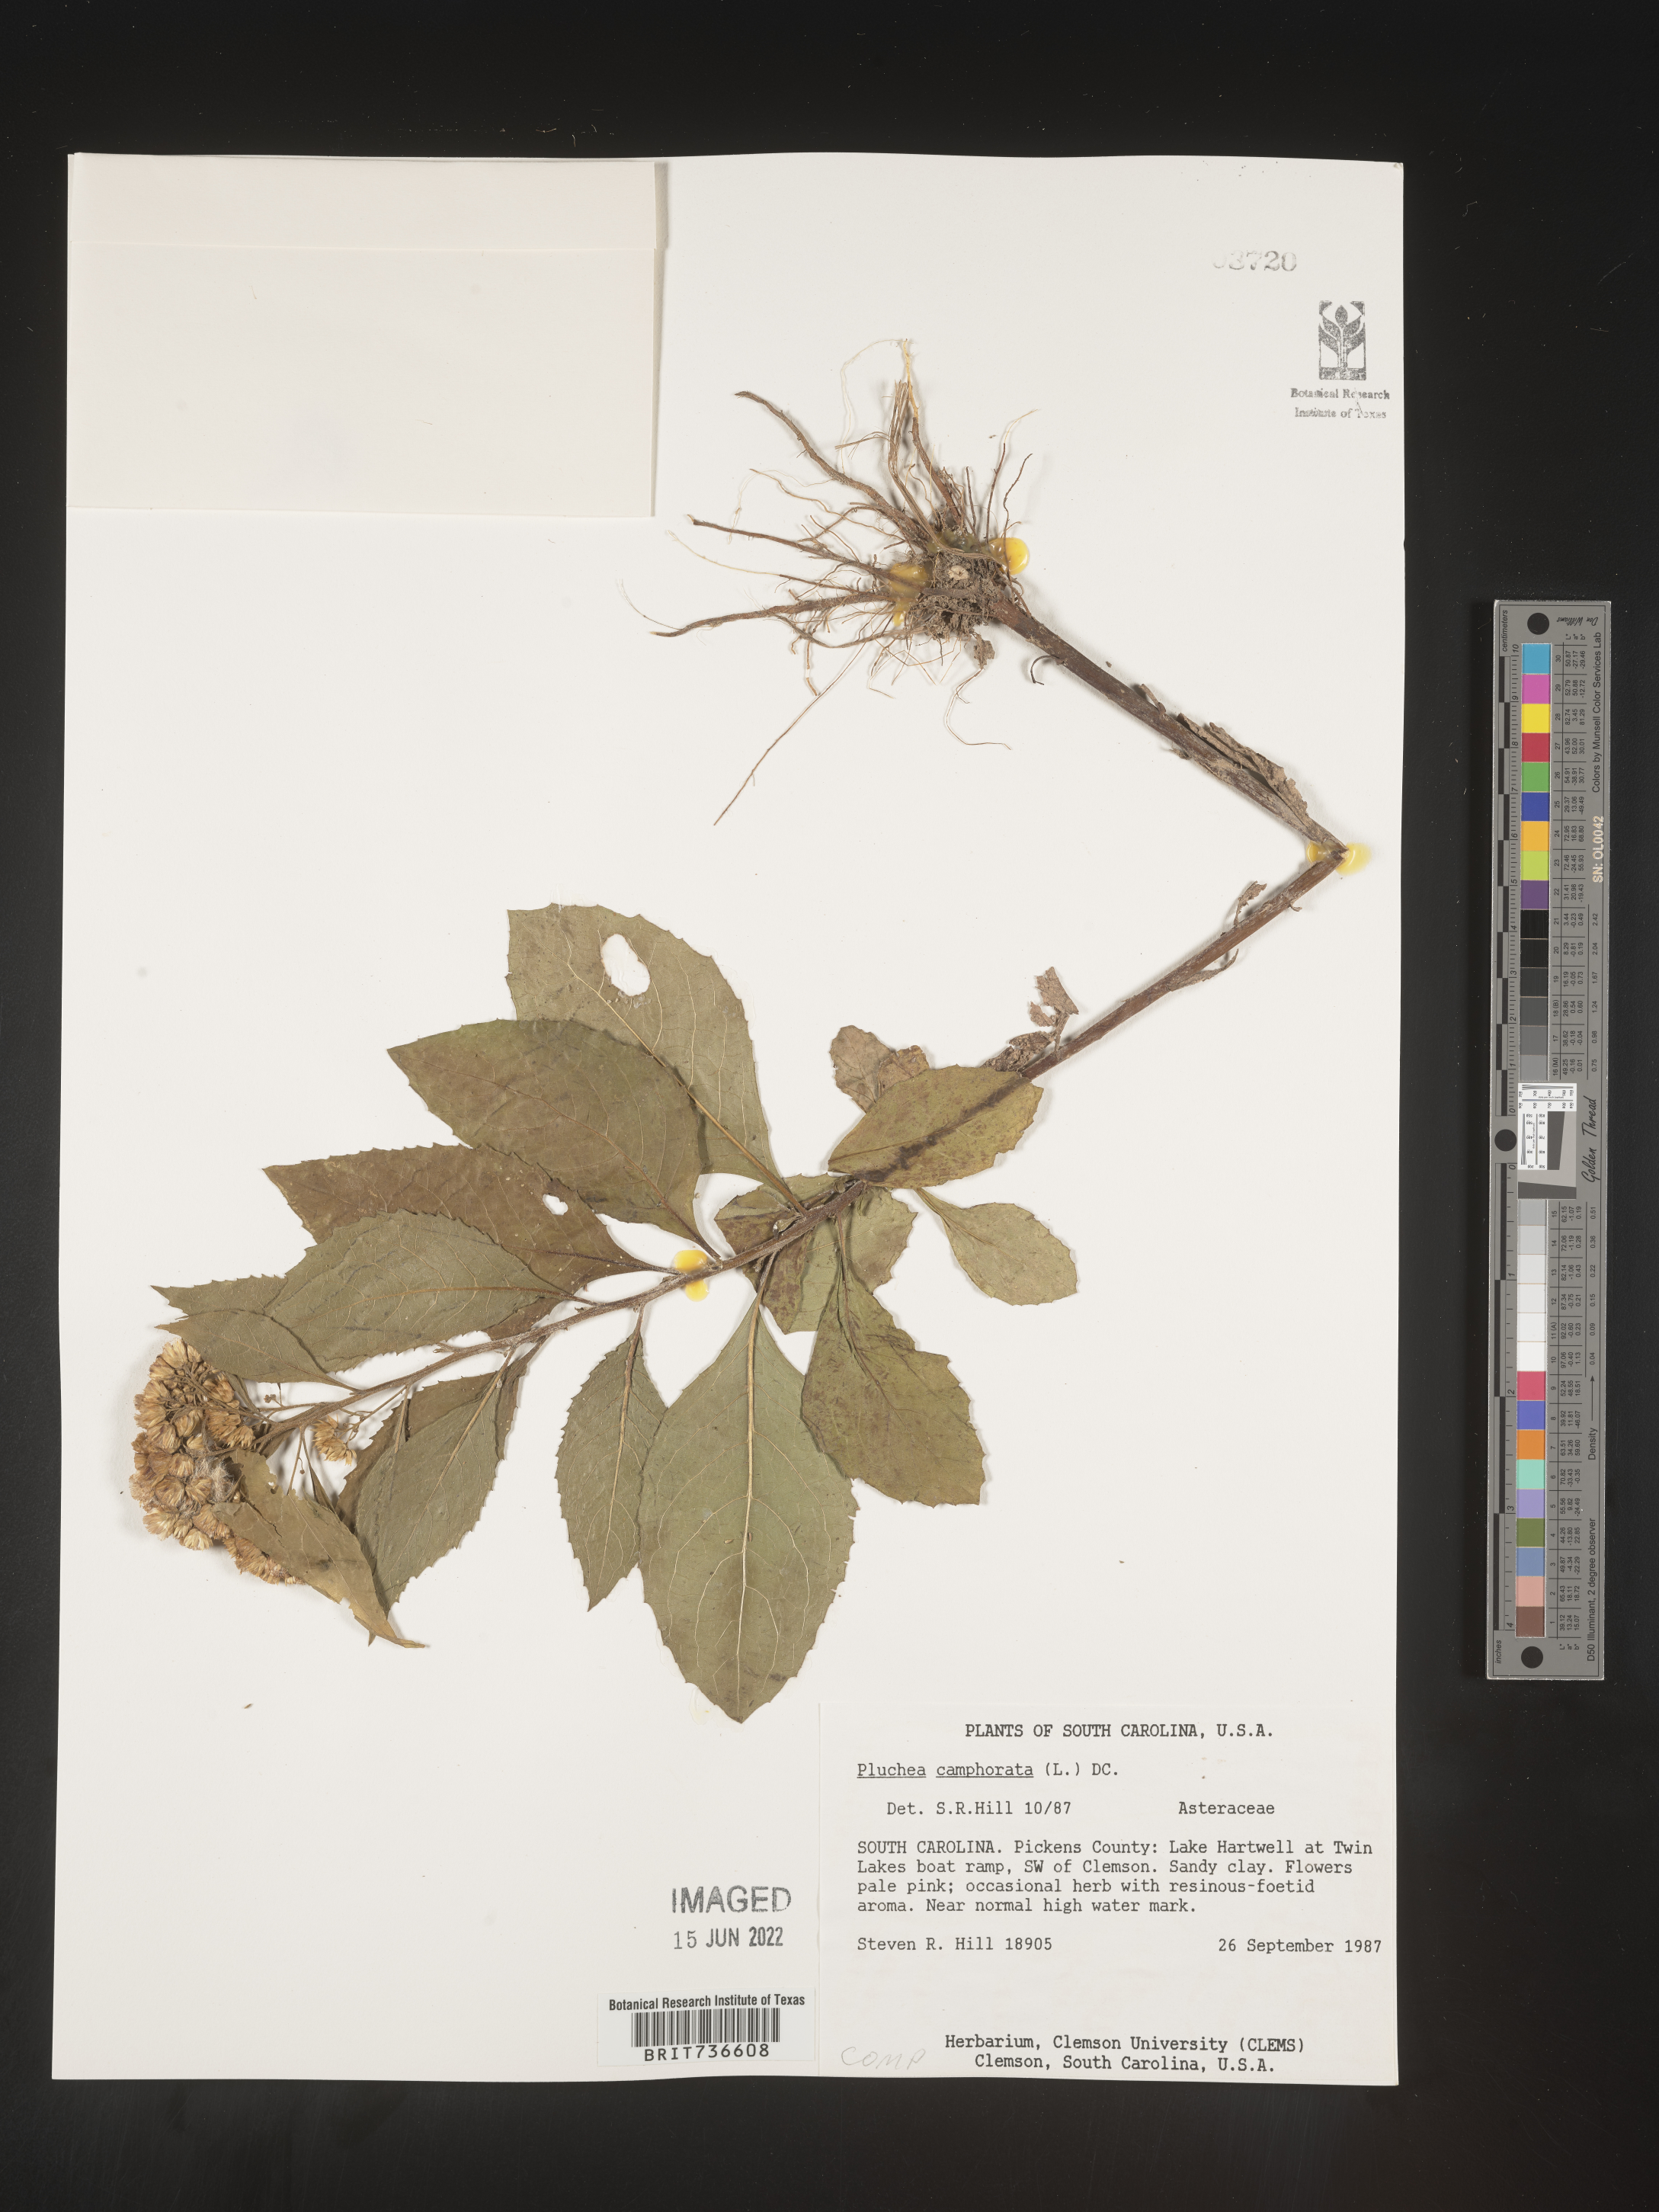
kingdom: Plantae
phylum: Tracheophyta
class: Magnoliopsida
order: Asterales
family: Asteraceae
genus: Pluchea
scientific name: Pluchea camphorata
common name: Camphor pluchea
